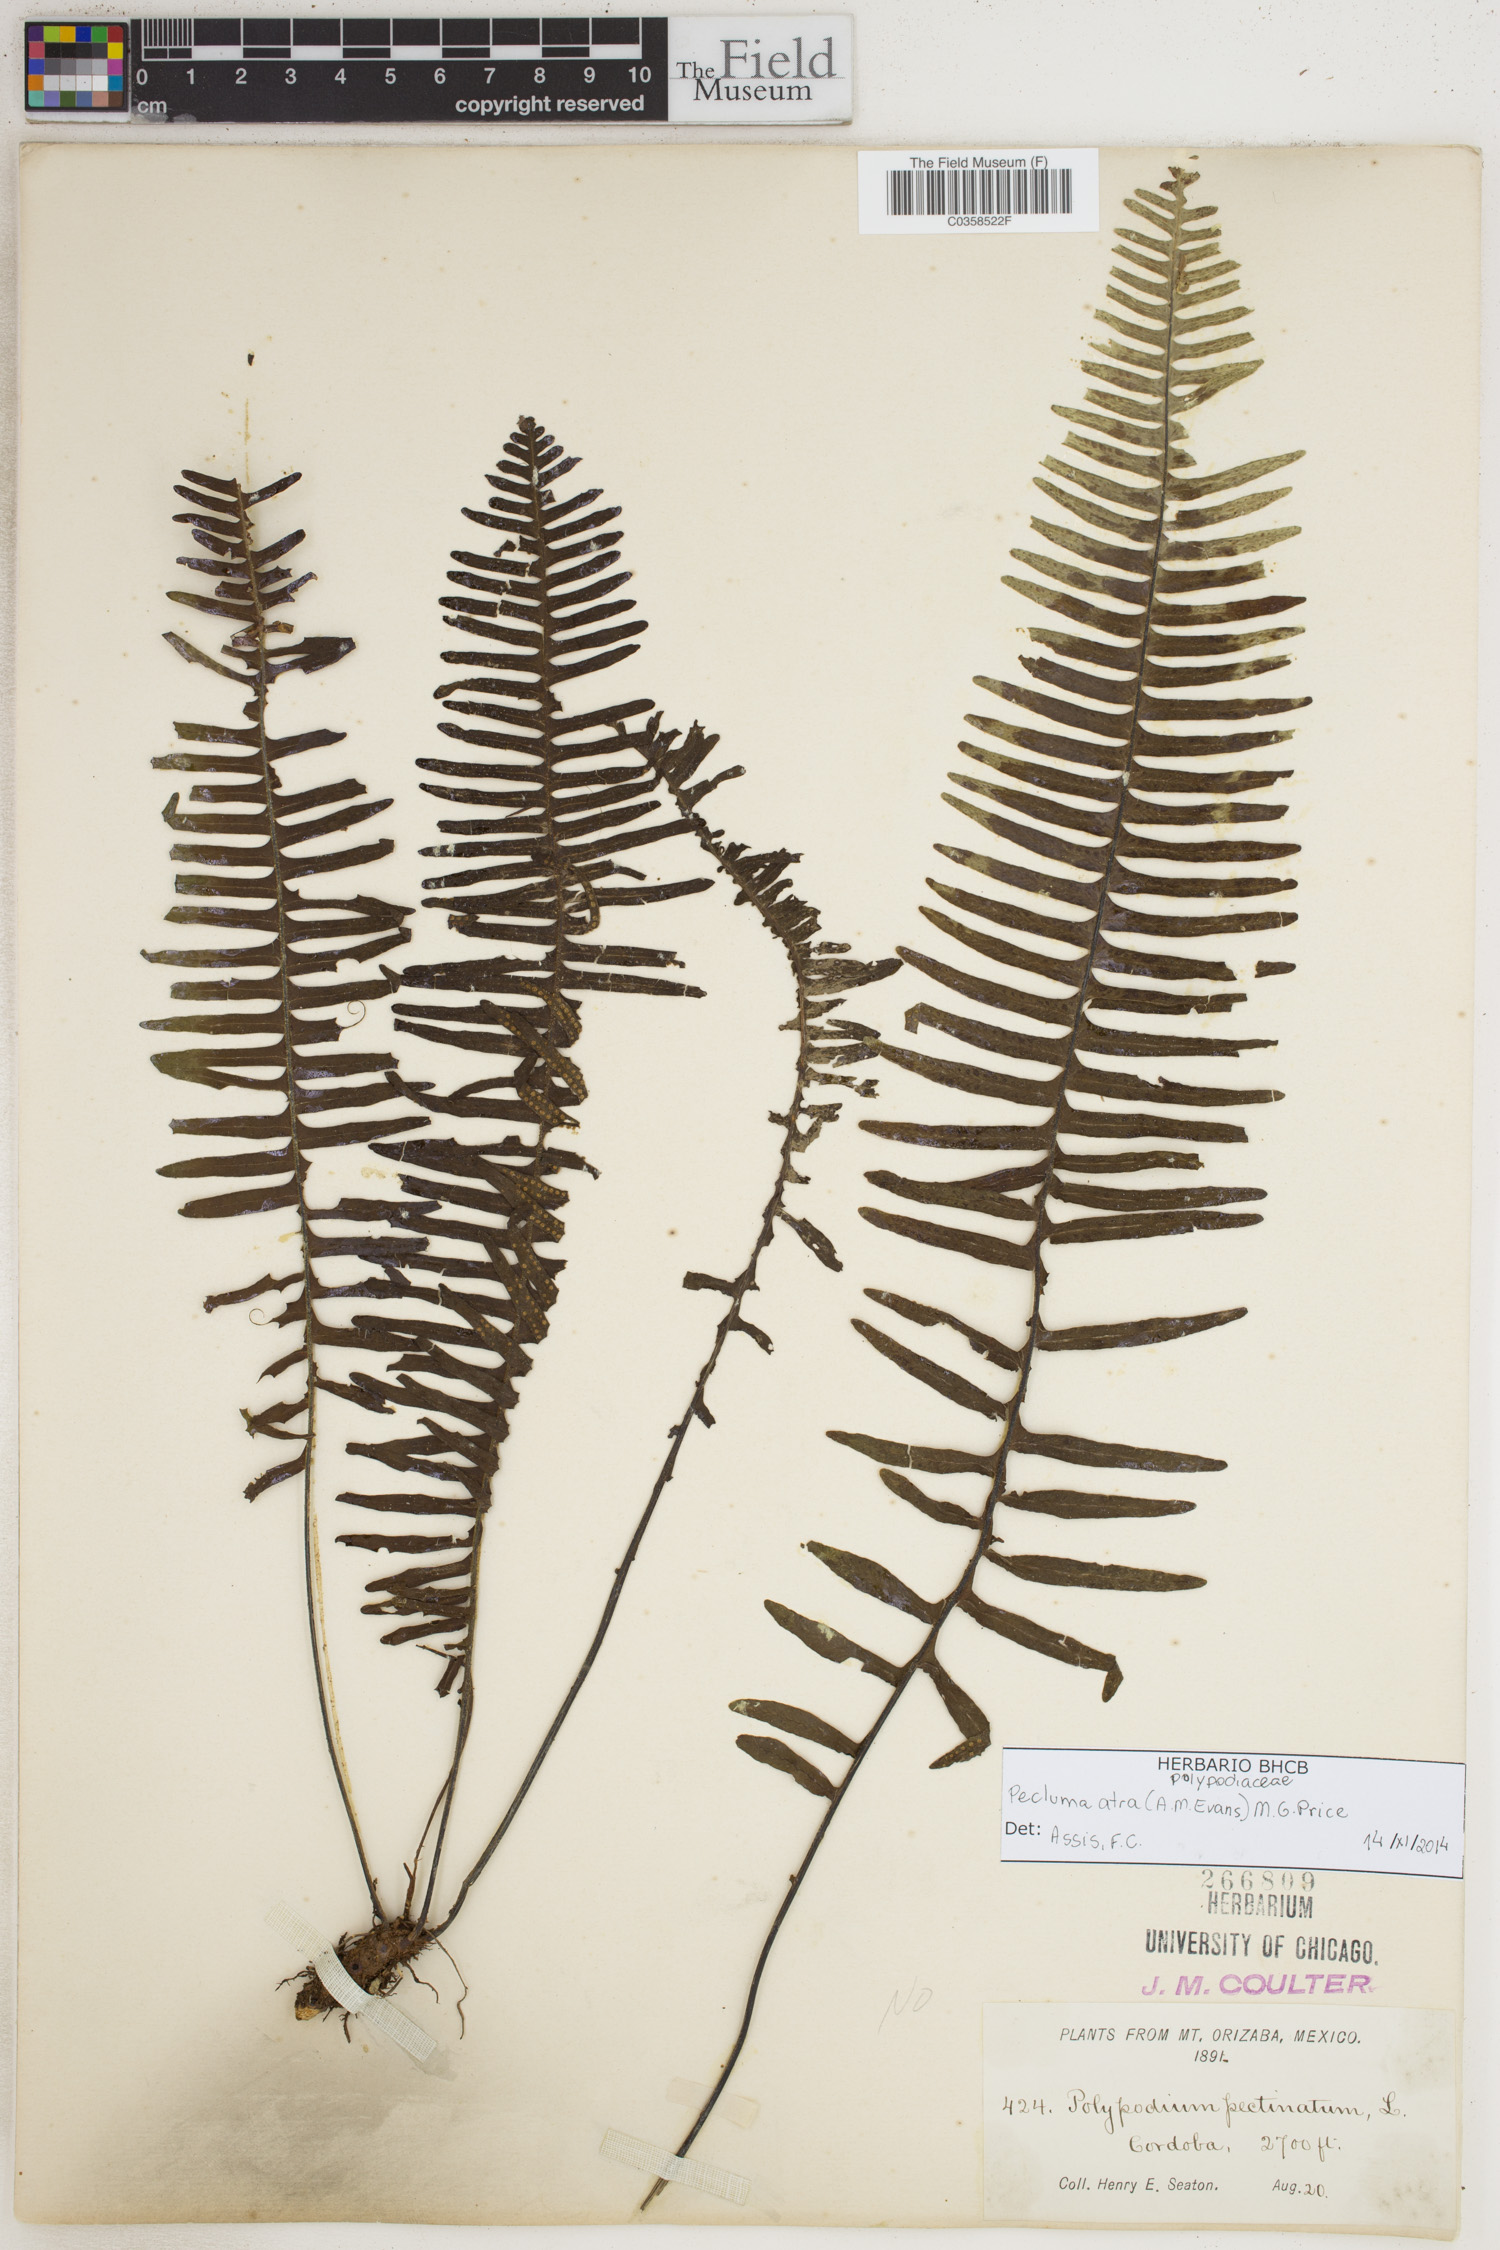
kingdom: Plantae
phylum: Tracheophyta
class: Polypodiopsida
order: Polypodiales
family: Polypodiaceae
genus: Pecluma
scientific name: Pecluma atra
